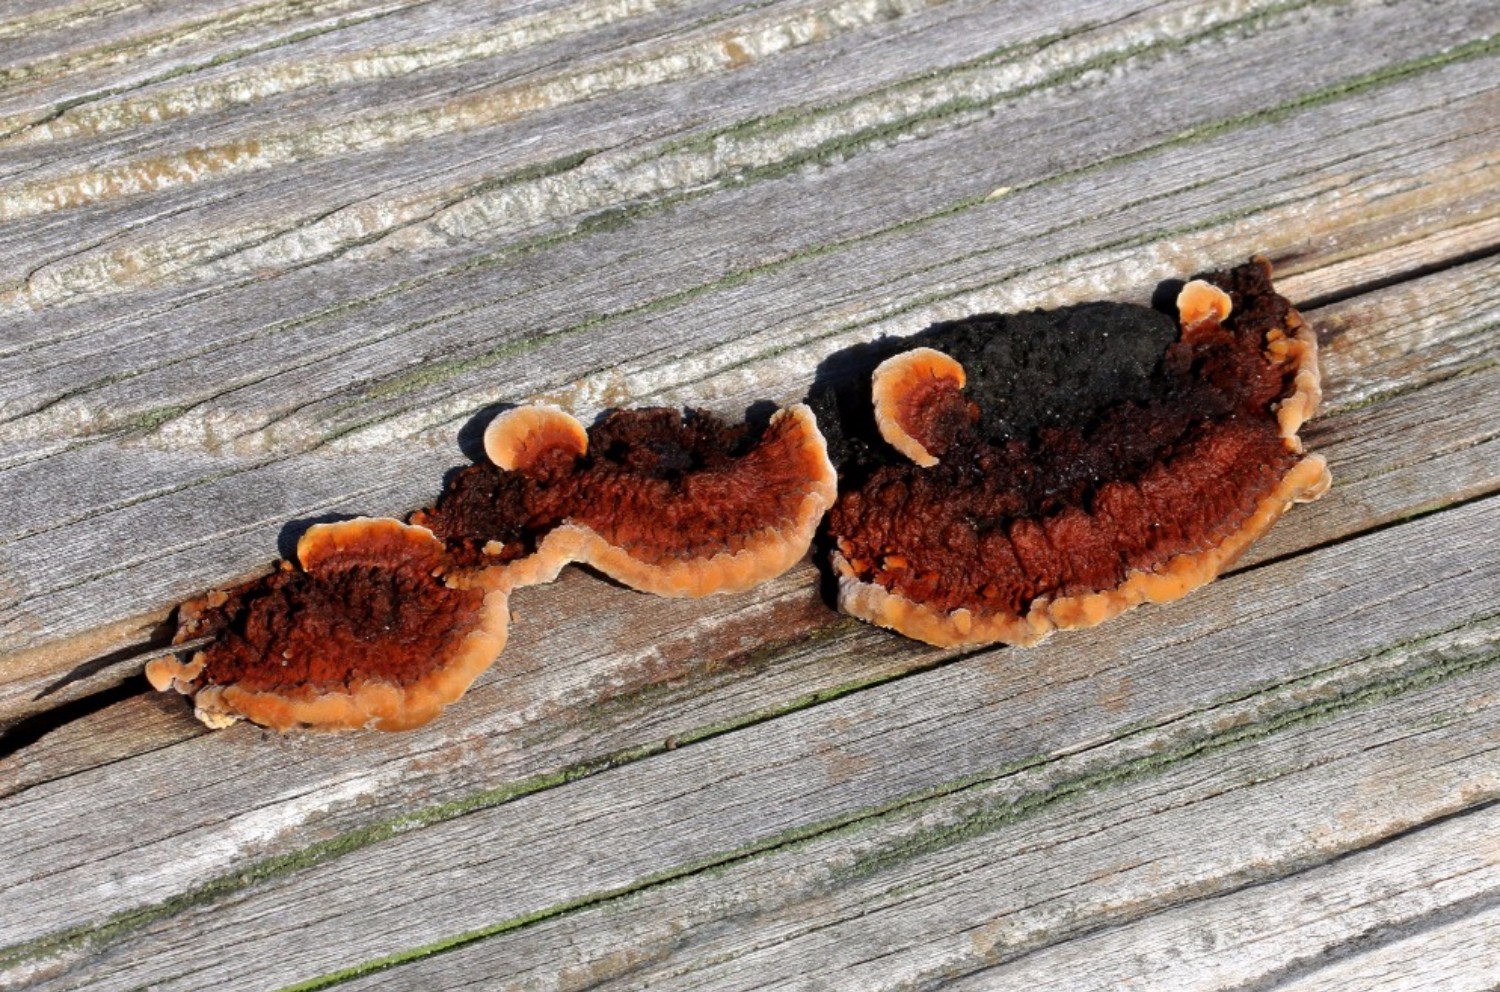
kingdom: Fungi
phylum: Basidiomycota
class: Agaricomycetes
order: Gloeophyllales
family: Gloeophyllaceae
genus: Gloeophyllum
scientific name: Gloeophyllum sepiarium
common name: fyrre-korkhat
